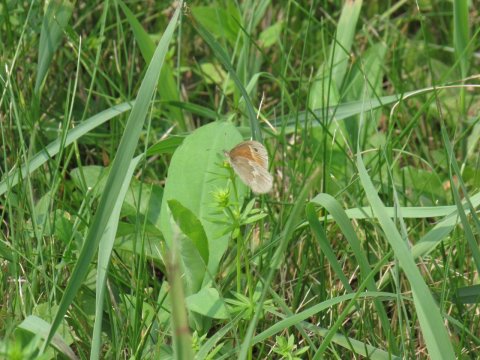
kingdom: Animalia
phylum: Arthropoda
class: Insecta
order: Lepidoptera
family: Nymphalidae
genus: Coenonympha
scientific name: Coenonympha tullia
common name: Large Heath
